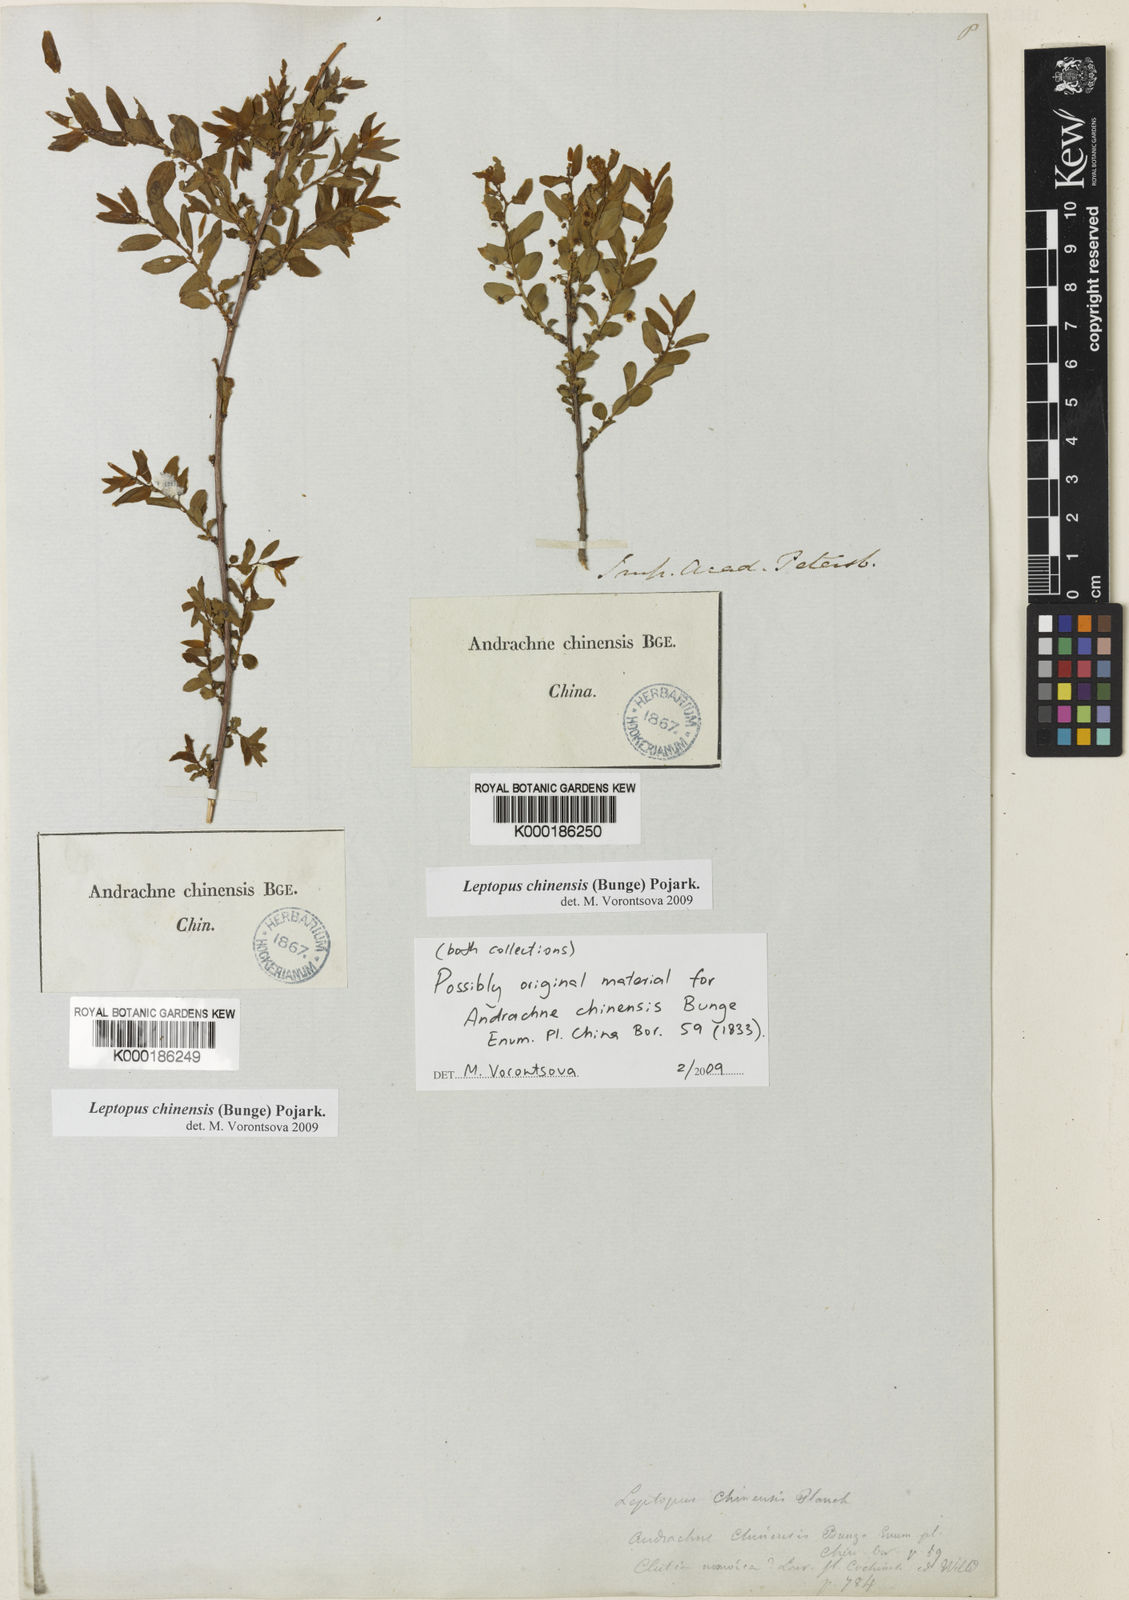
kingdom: Plantae
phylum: Tracheophyta
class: Magnoliopsida
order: Malpighiales
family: Phyllanthaceae
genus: Leptopus
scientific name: Leptopus chinensis
